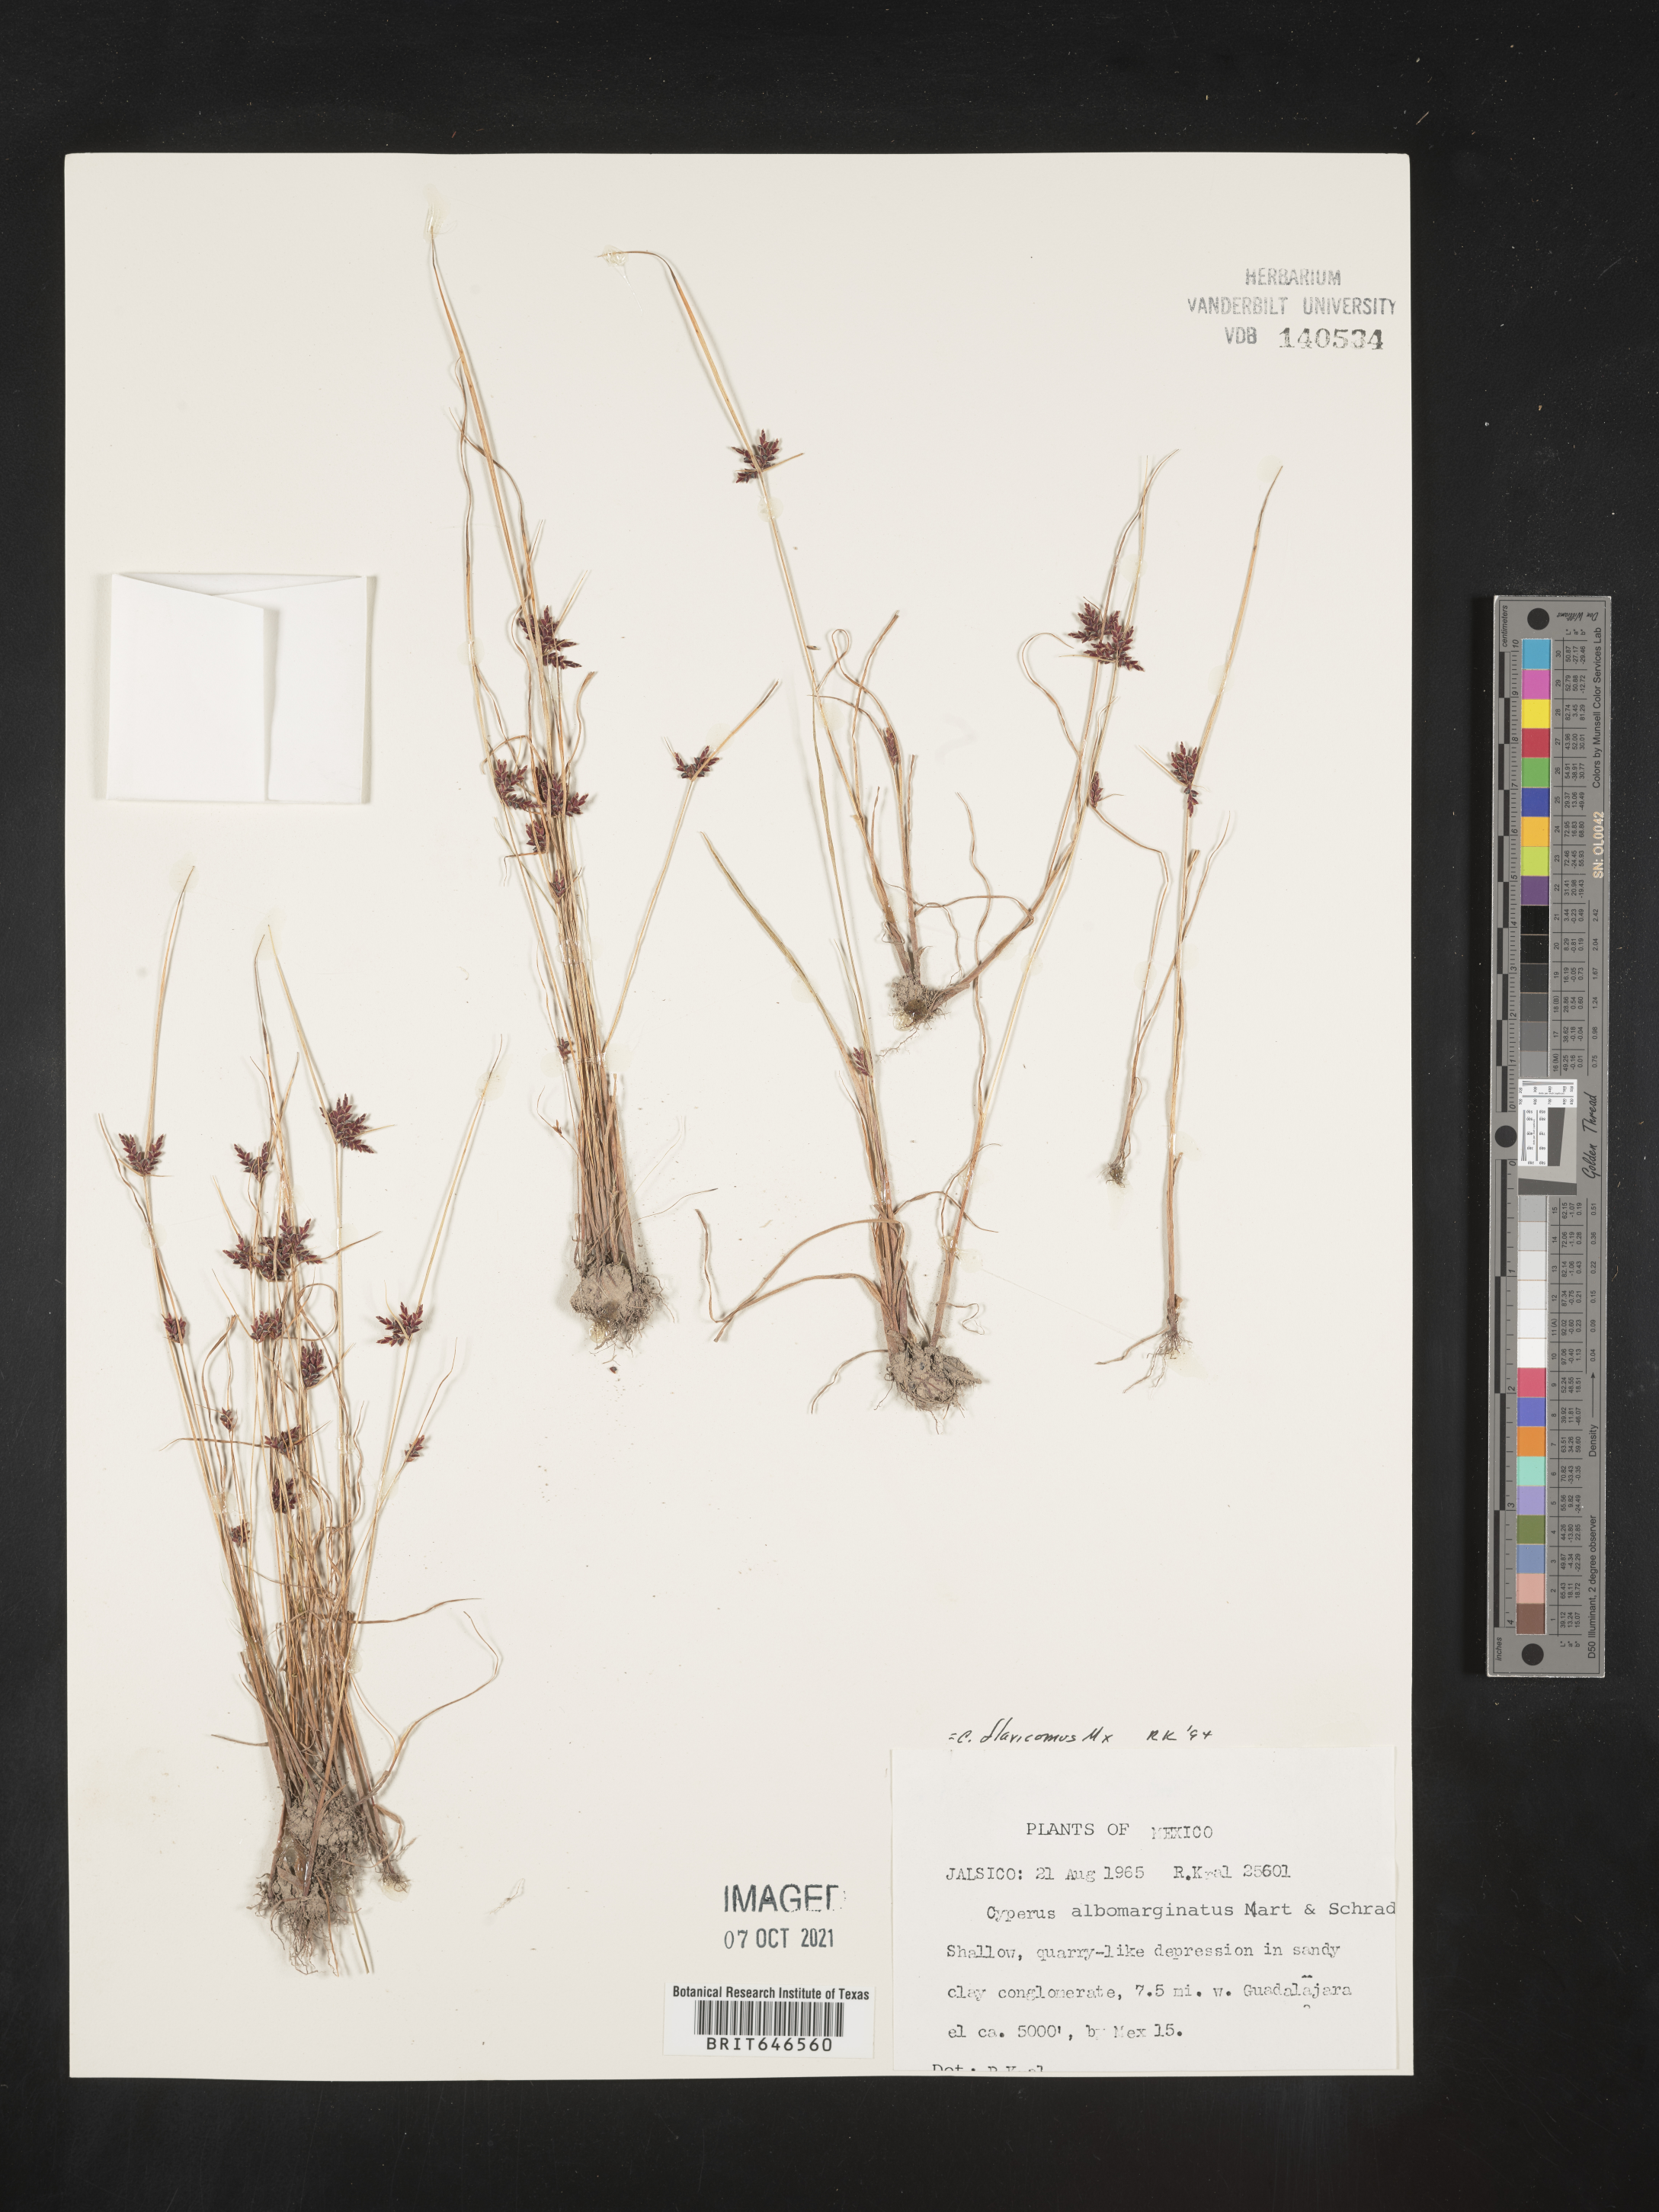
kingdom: Plantae
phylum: Tracheophyta
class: Liliopsida
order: Poales
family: Cyperaceae
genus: Cyperus
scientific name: Cyperus
